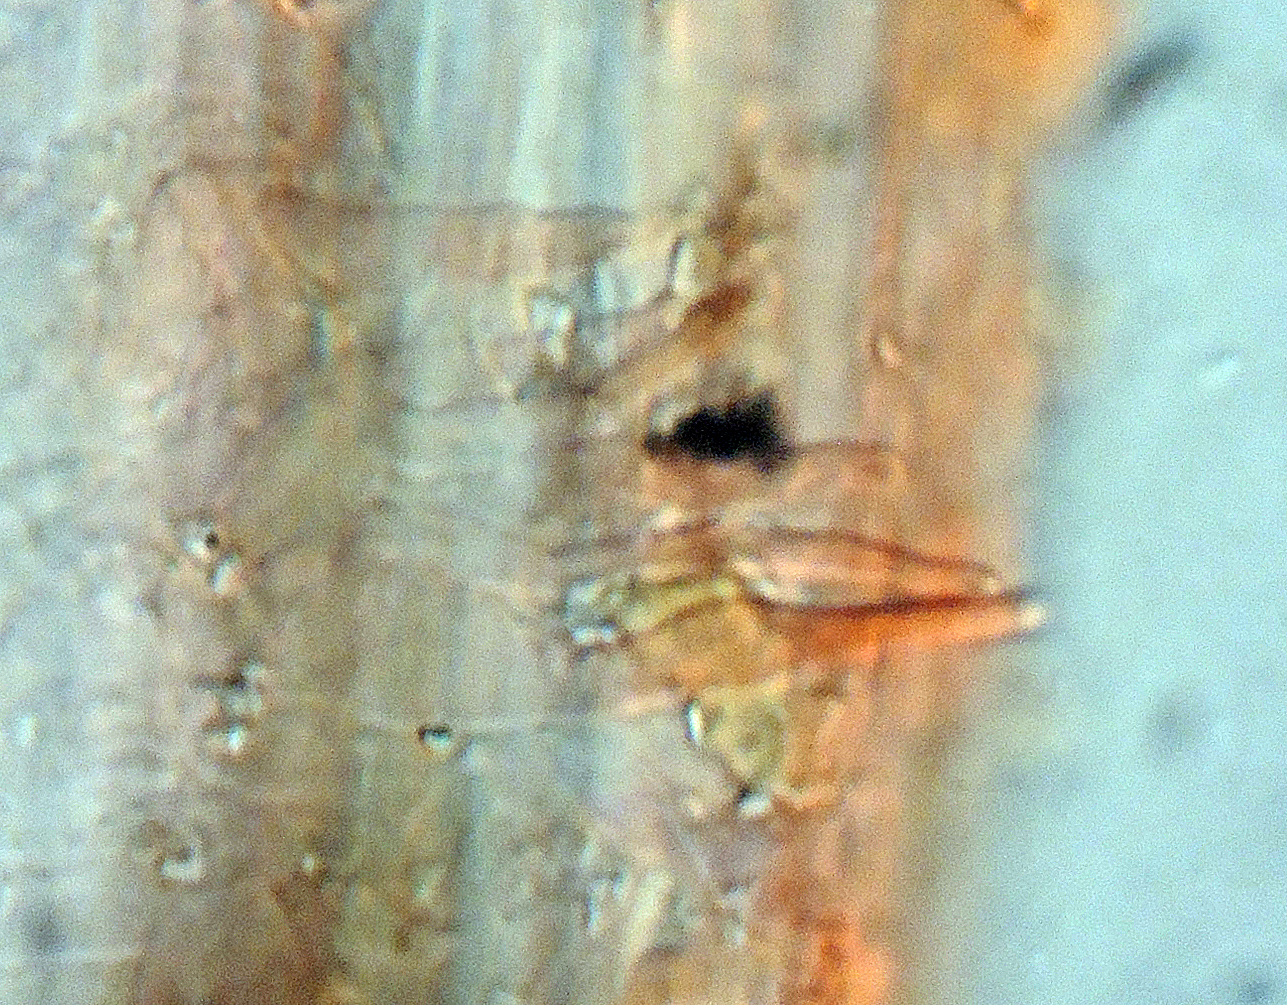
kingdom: Fungi
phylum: Basidiomycota
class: Agaricomycetes
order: Agaricales
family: Mycenaceae
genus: Hydropus
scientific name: Hydropus moserianus
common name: nedløbende fnugfod
